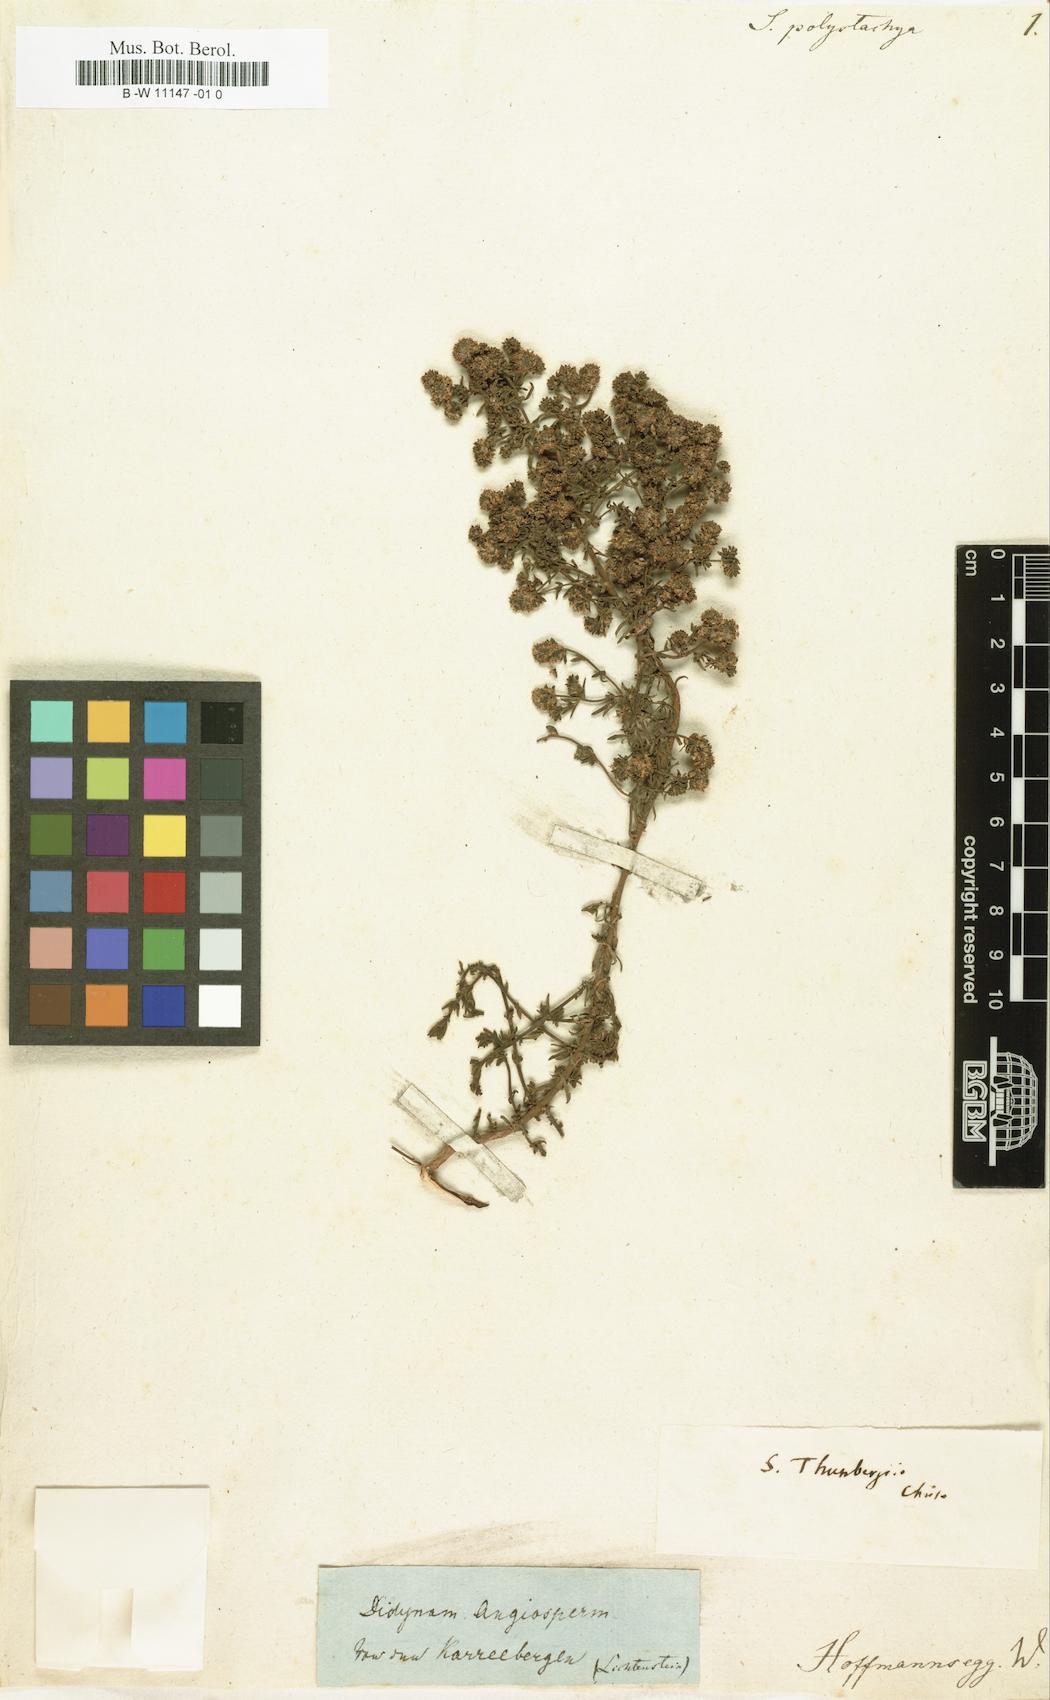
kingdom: Plantae
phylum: Tracheophyta
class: Magnoliopsida
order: Lamiales
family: Scrophulariaceae
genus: Selago
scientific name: Selago polystachya
